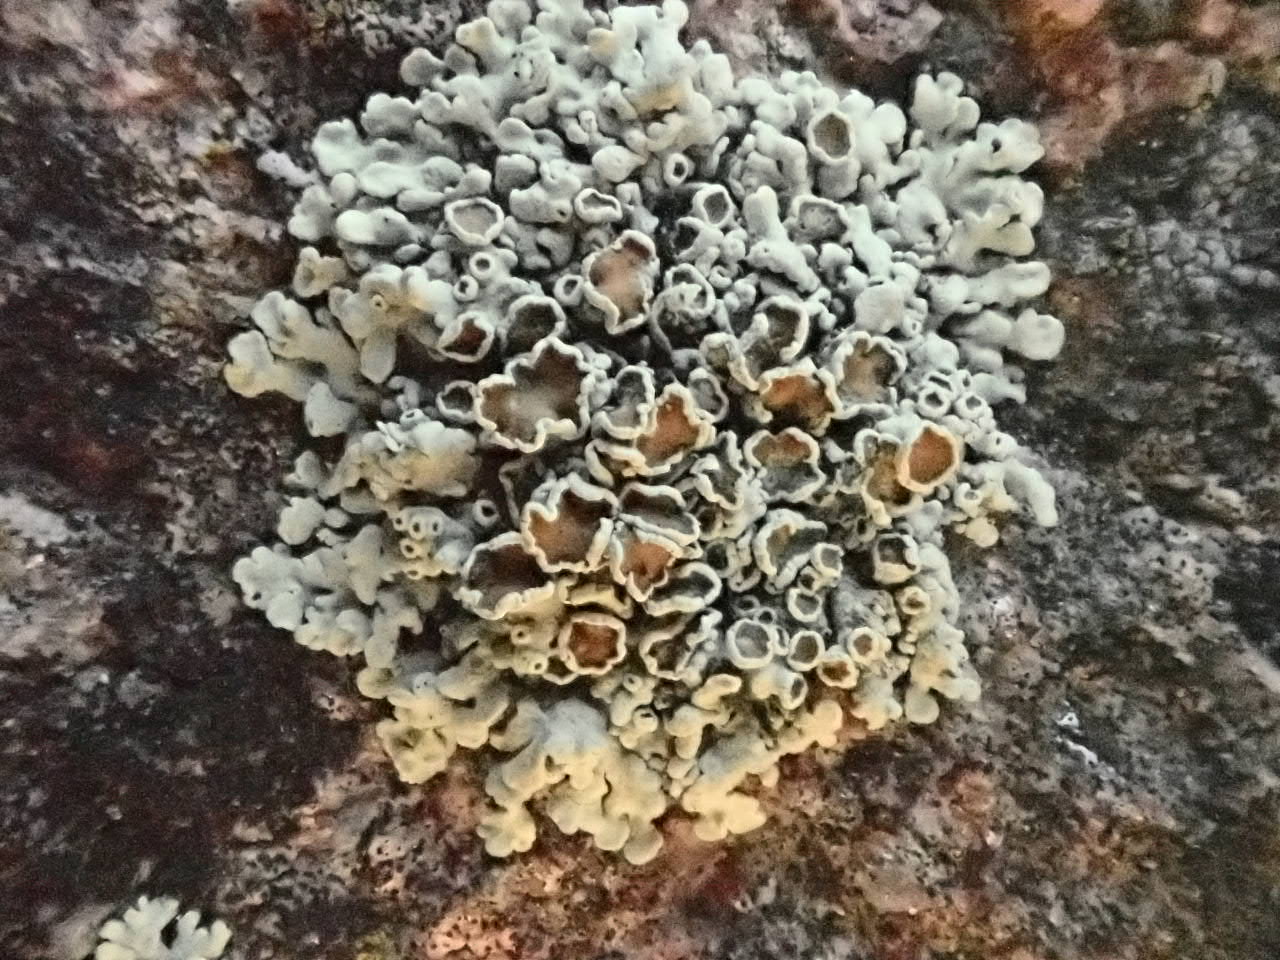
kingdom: Fungi
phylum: Ascomycota
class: Lecanoromycetes
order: Lecanorales
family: Lecanoraceae
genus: Protoparmeliopsis
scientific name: Protoparmeliopsis achariana
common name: tyklobet kantskivelav
